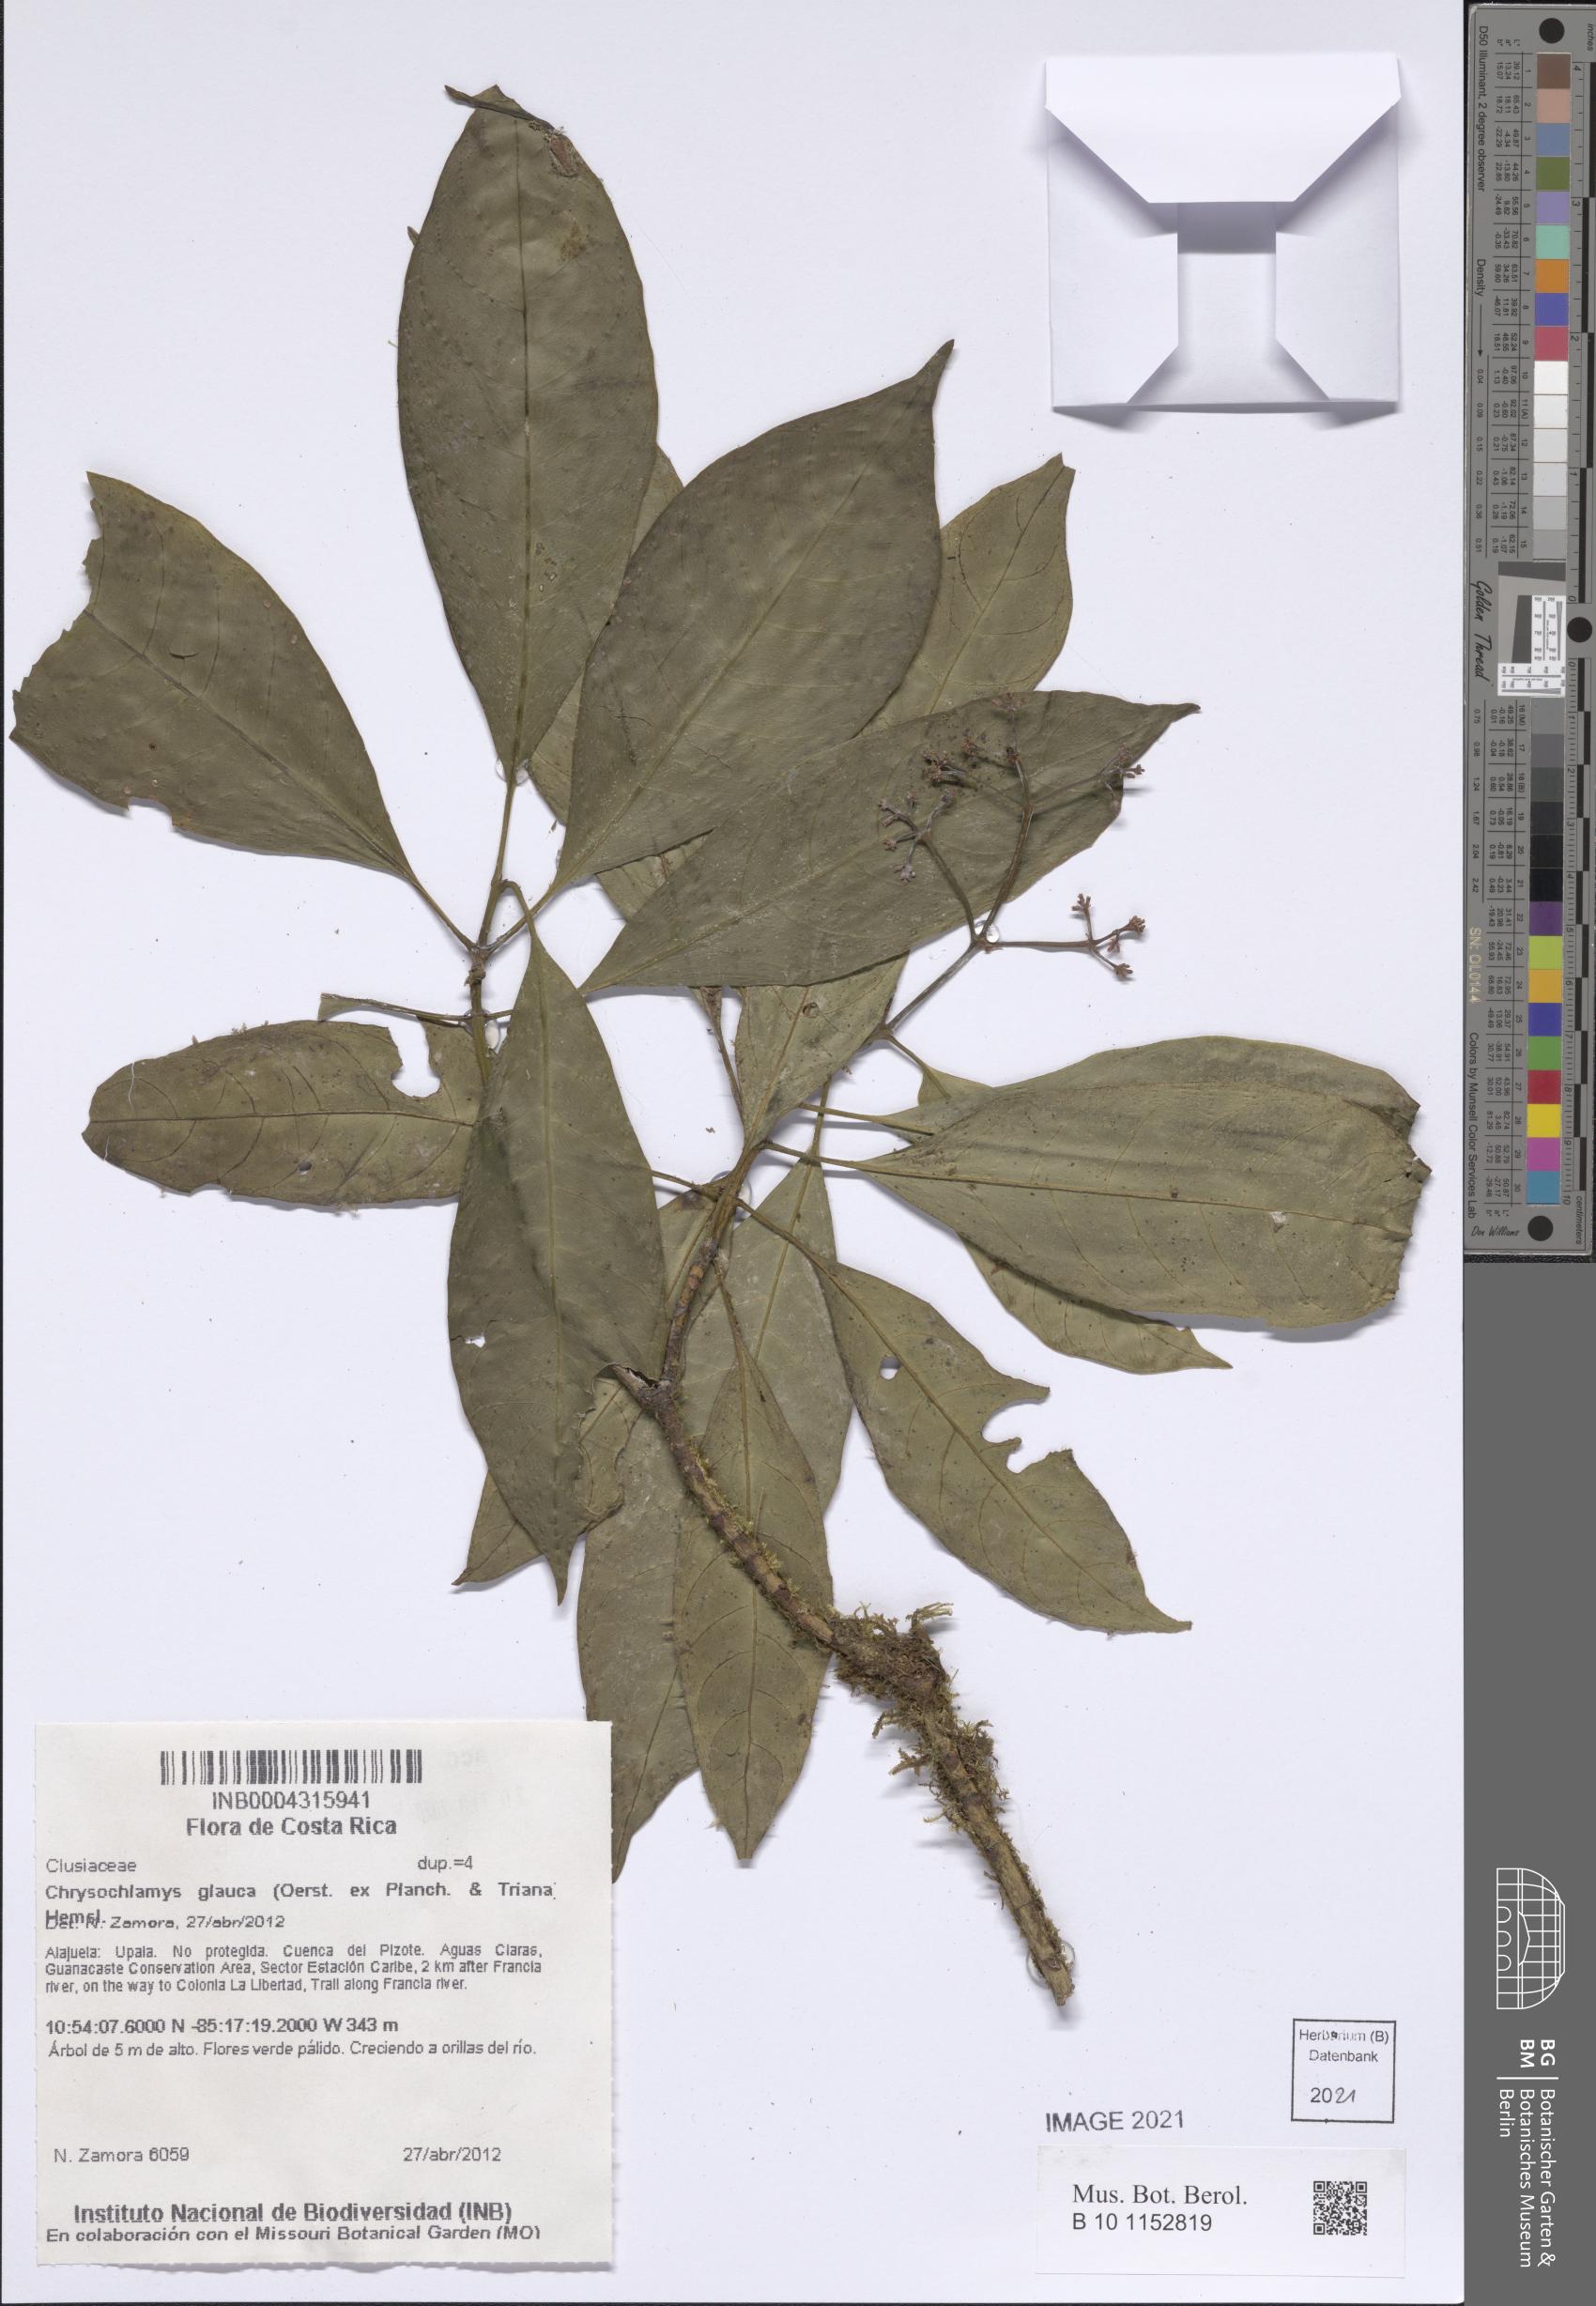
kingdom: Plantae
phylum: Tracheophyta
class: Magnoliopsida
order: Malpighiales
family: Clusiaceae
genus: Chrysochlamys
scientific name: Chrysochlamys glauca
